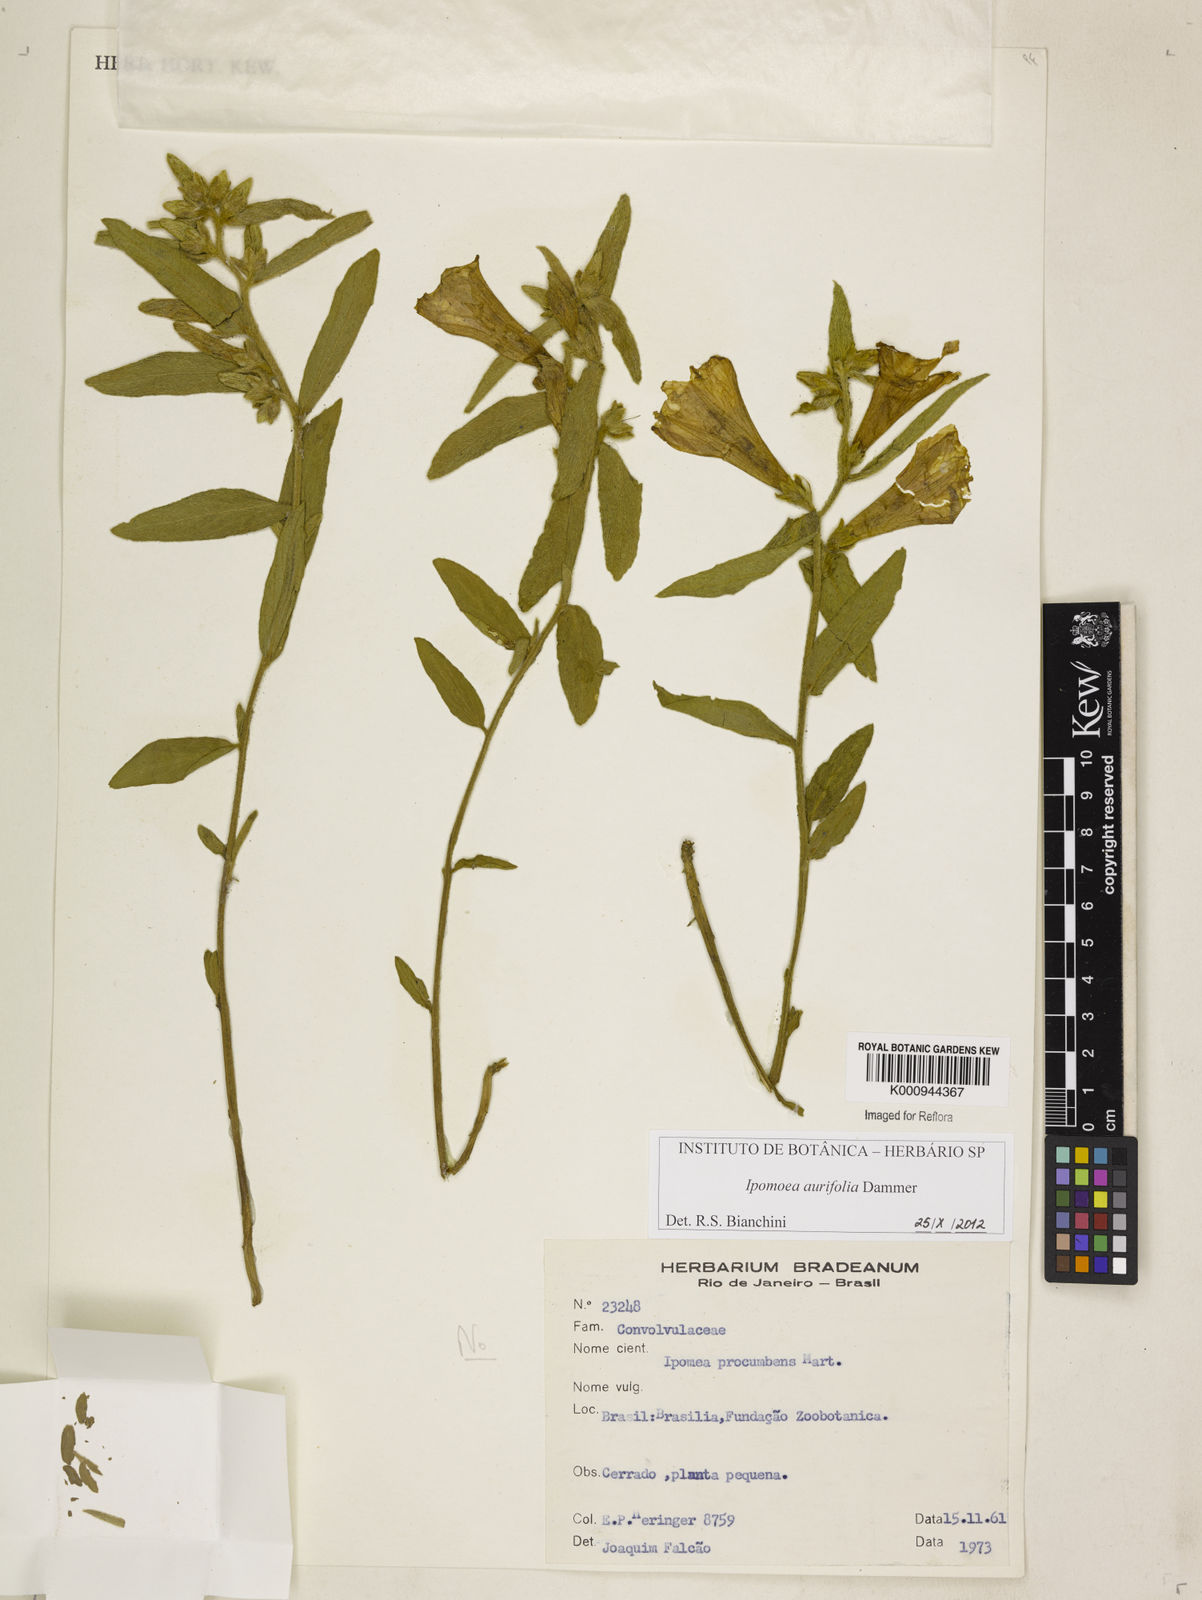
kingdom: Plantae
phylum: Tracheophyta
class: Magnoliopsida
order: Solanales
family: Convolvulaceae
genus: Ipomoea
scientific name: Ipomoea aurifolia
